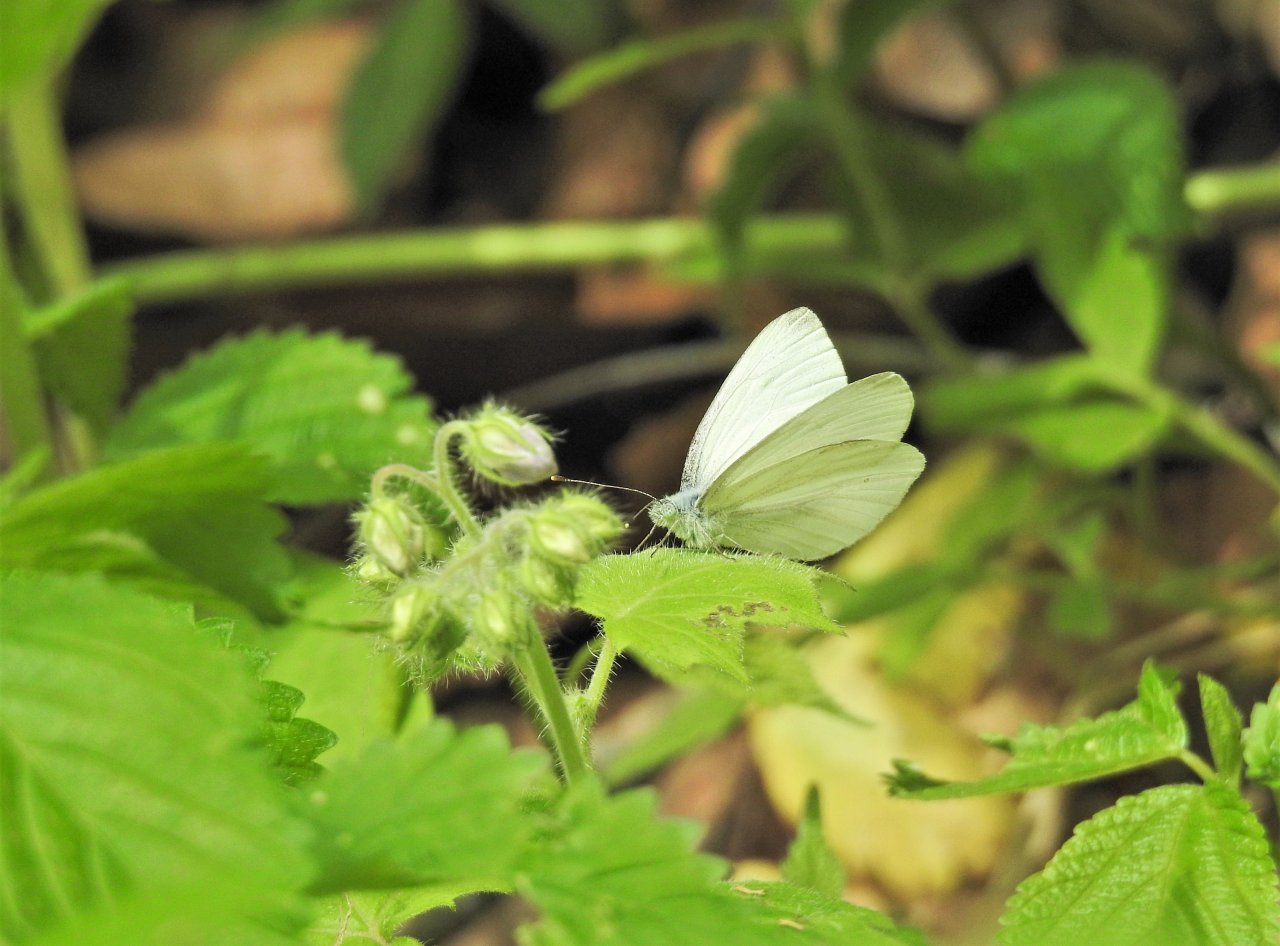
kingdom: Animalia
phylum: Arthropoda
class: Insecta
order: Lepidoptera
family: Pieridae
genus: Pieris
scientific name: Pieris virginiensis
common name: West Virginia White
